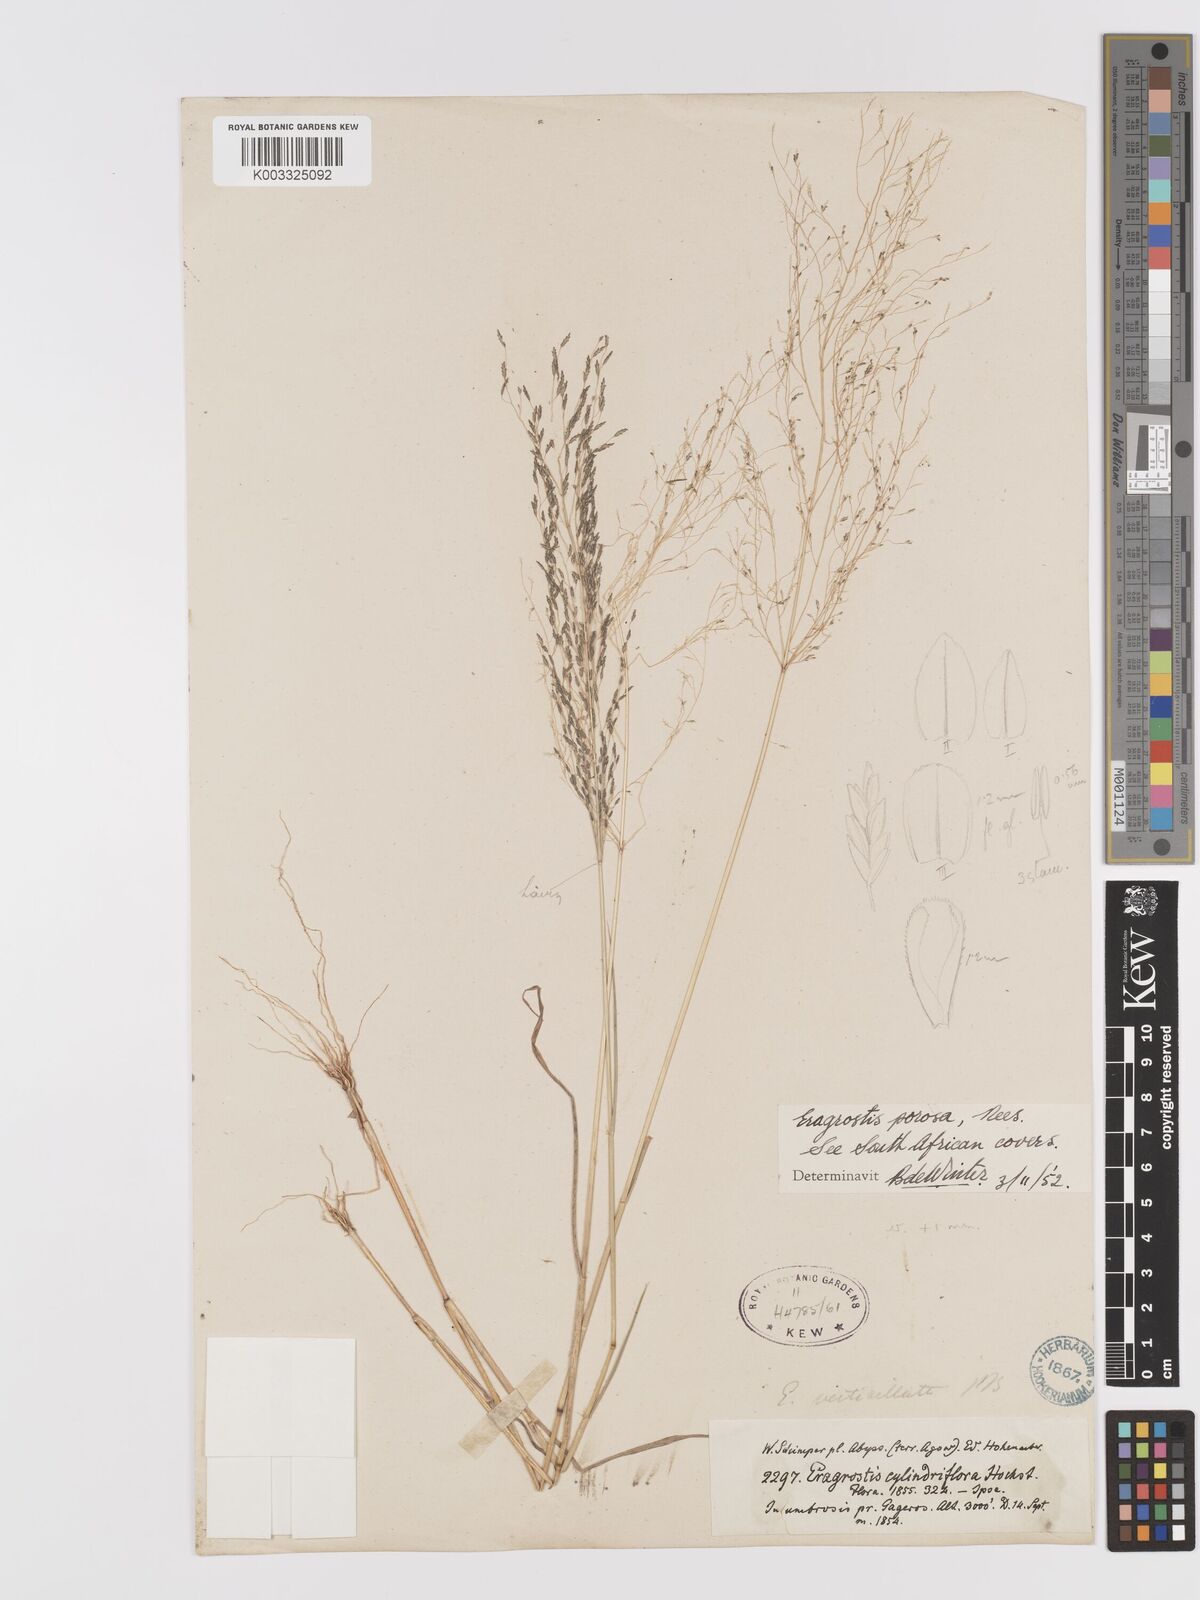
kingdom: Plantae
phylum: Tracheophyta
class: Liliopsida
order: Poales
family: Poaceae
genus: Eragrostis
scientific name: Eragrostis porosa
